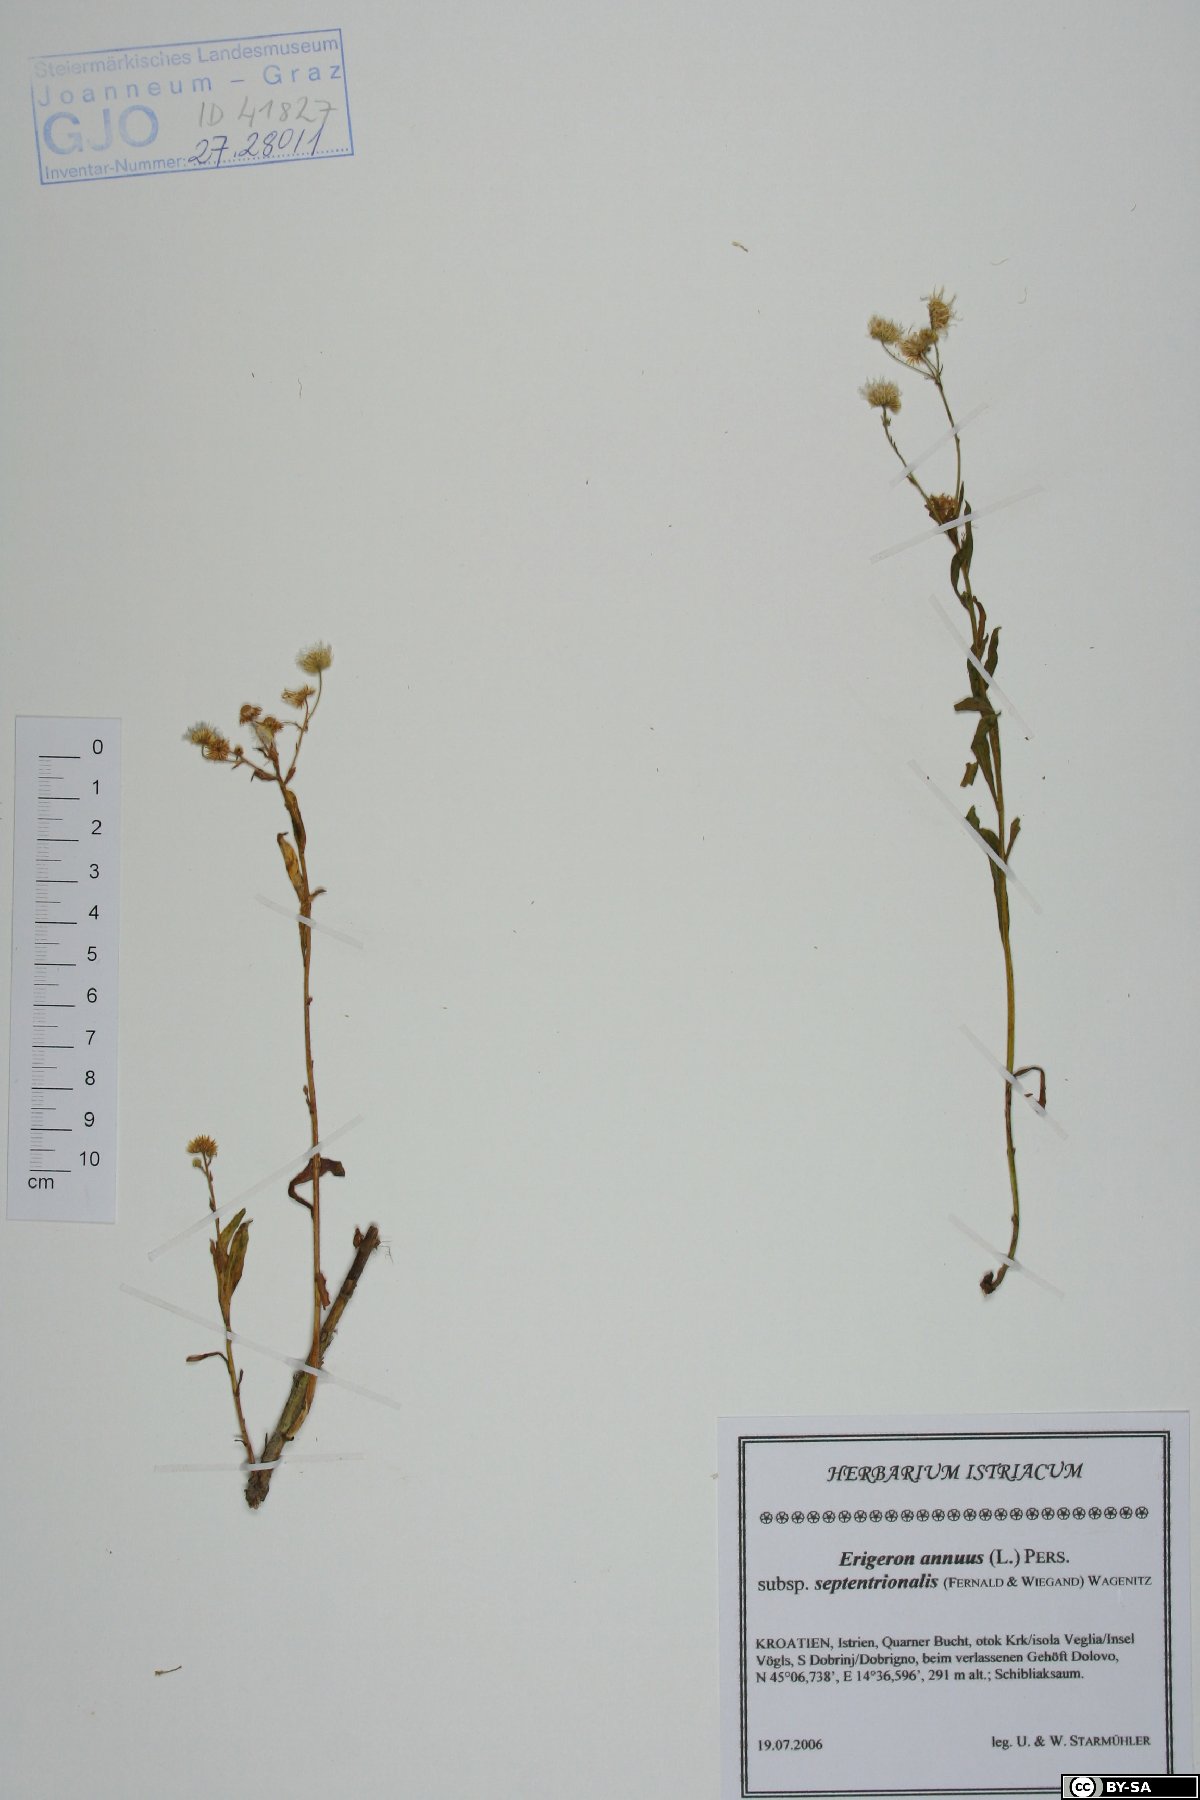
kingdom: Plantae
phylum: Tracheophyta
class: Magnoliopsida
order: Asterales
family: Asteraceae
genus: Erigeron
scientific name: Erigeron annuus
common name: Tall fleabane
